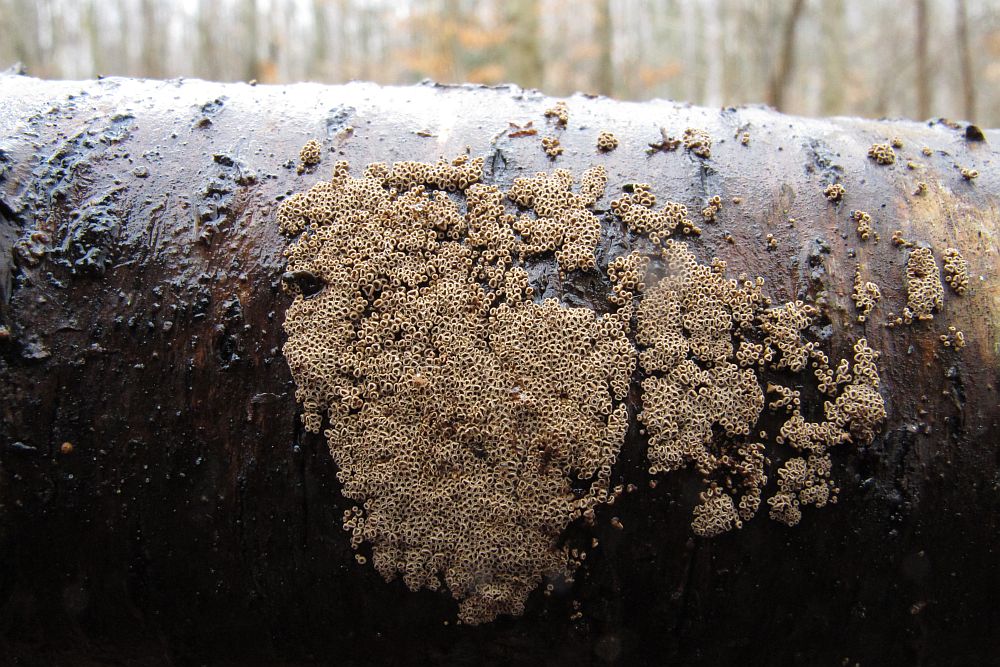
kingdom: Fungi
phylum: Basidiomycota
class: Agaricomycetes
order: Agaricales
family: Niaceae
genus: Merismodes
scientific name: Merismodes anomala
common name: almindelig læderskål
